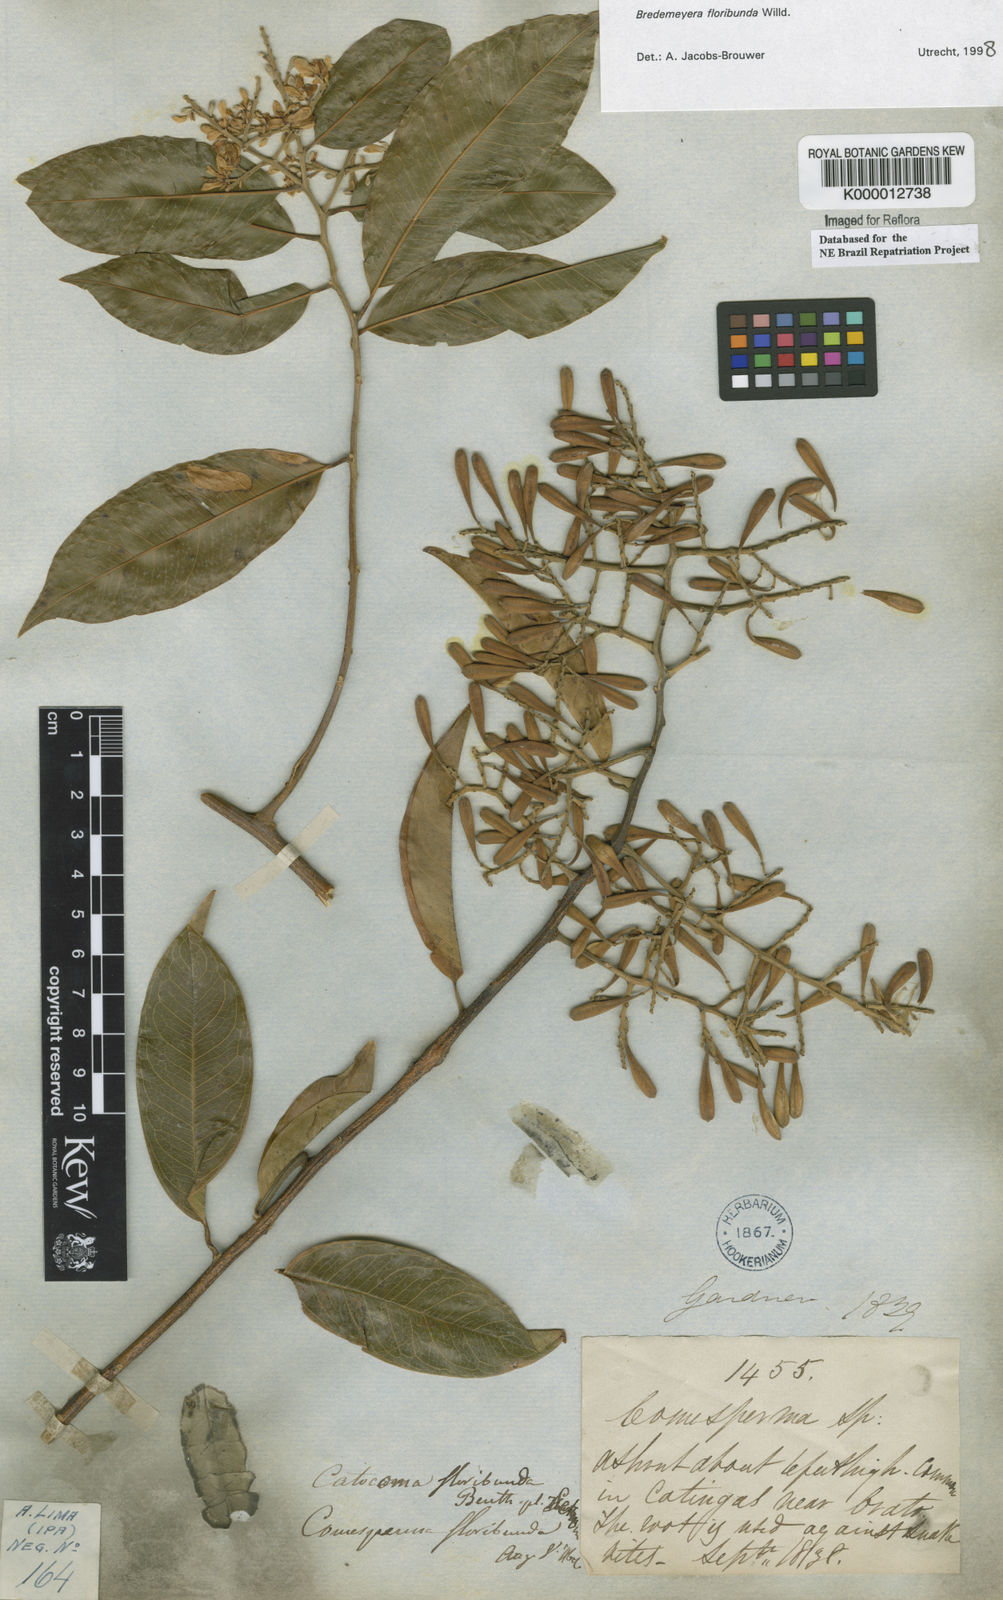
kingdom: Plantae
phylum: Tracheophyta
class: Magnoliopsida
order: Fabales
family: Polygalaceae
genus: Bredemeyera
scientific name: Bredemeyera floribunda
